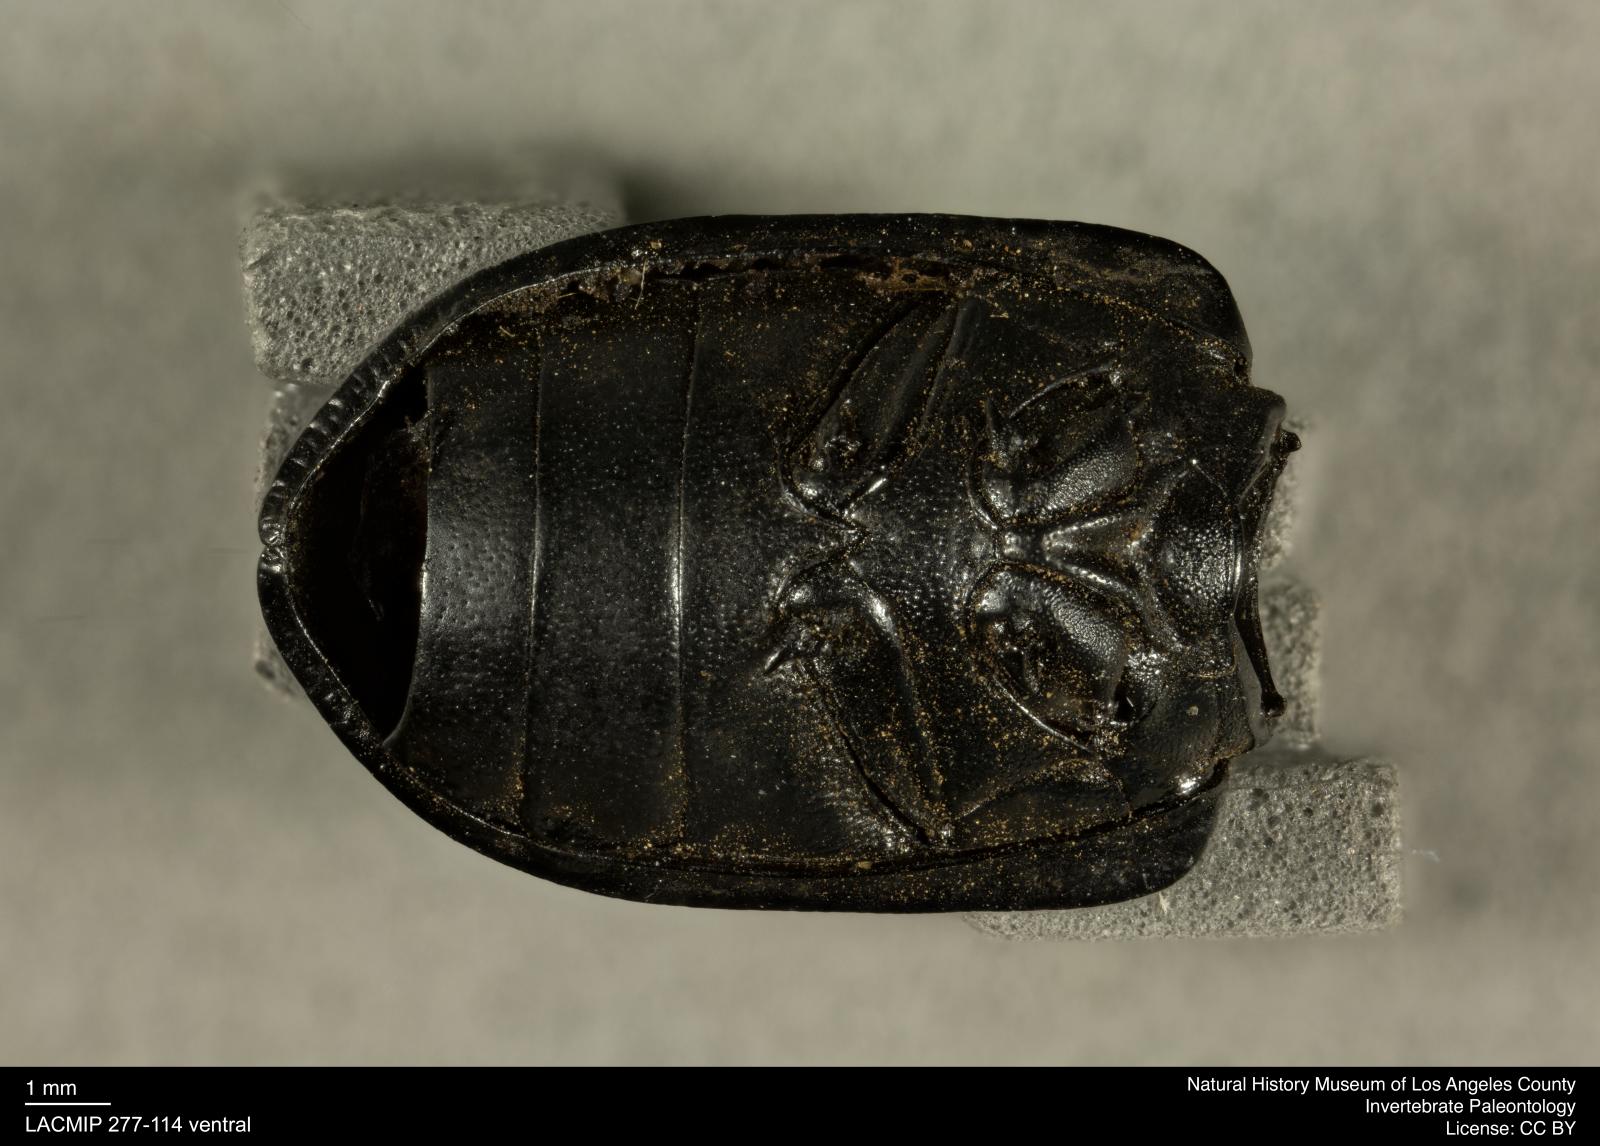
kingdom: Animalia
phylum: Arthropoda
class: Insecta
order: Coleoptera
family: Tenebrionidae
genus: Coniontis
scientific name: Coniontis abdominalis
